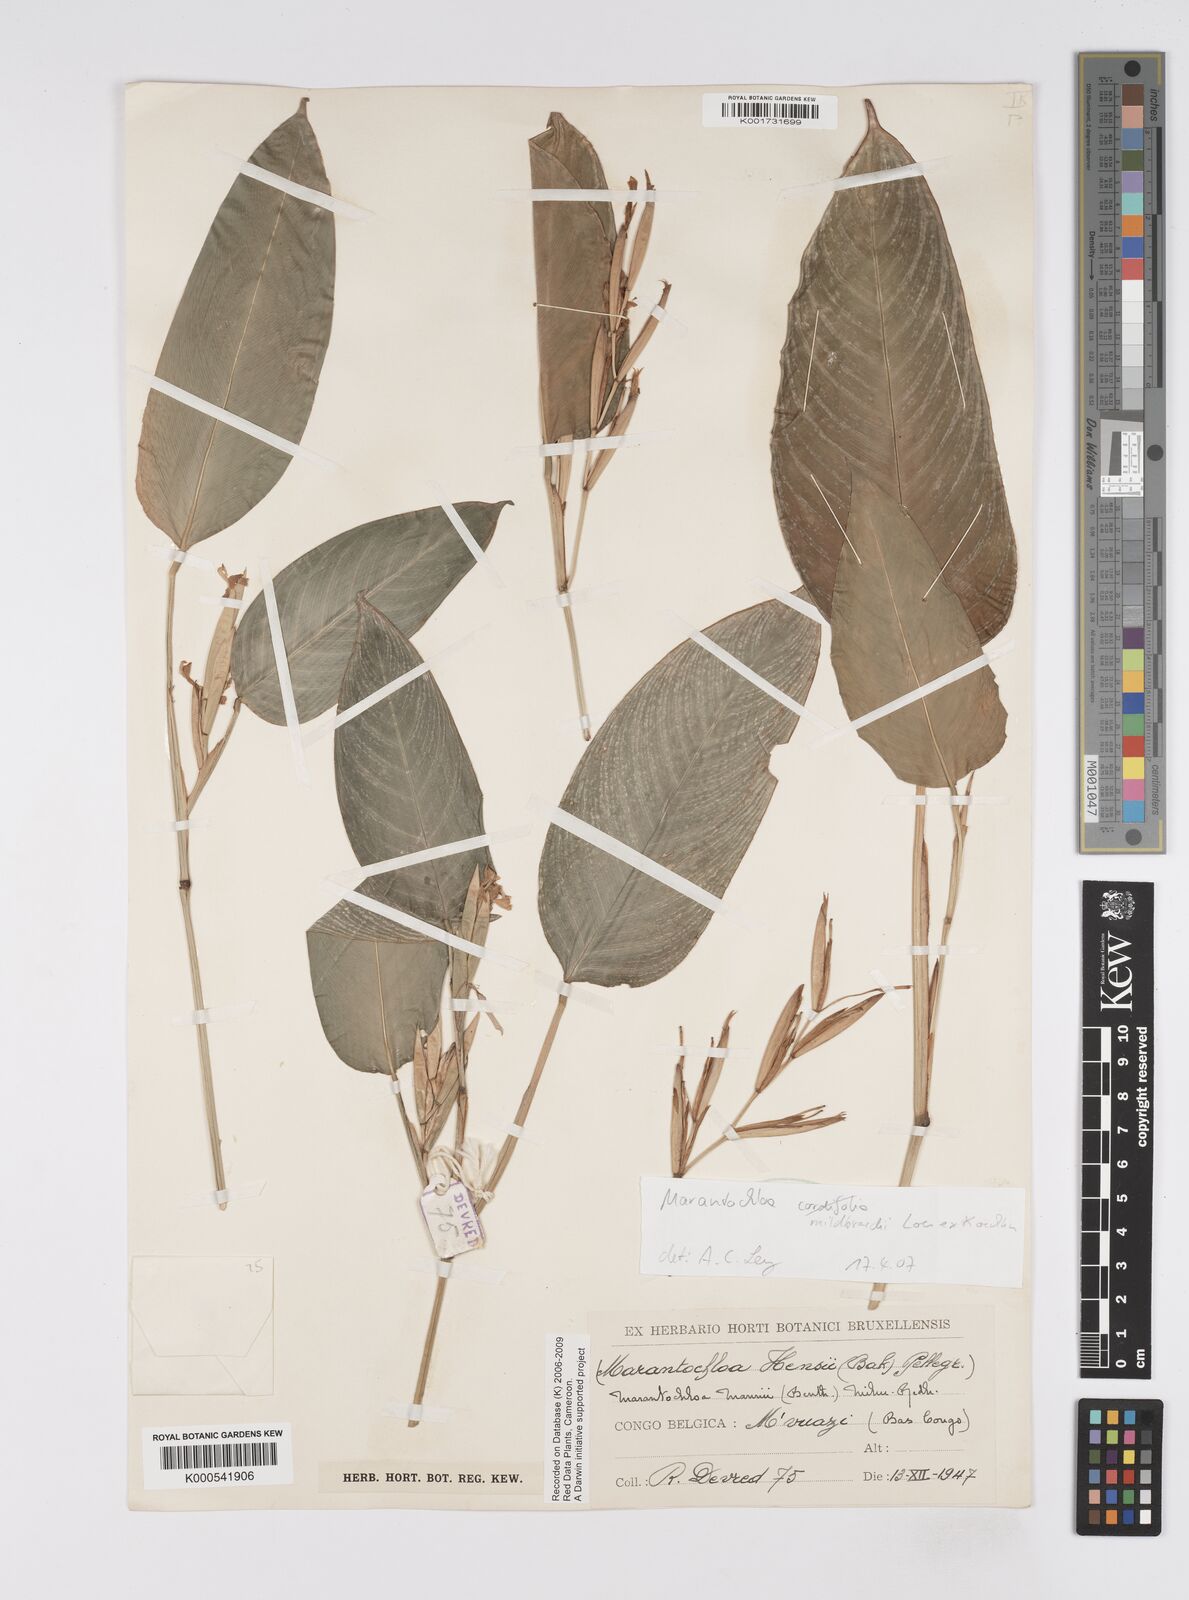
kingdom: Plantae
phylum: Tracheophyta
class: Liliopsida
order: Zingiberales
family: Marantaceae
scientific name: Marantaceae
